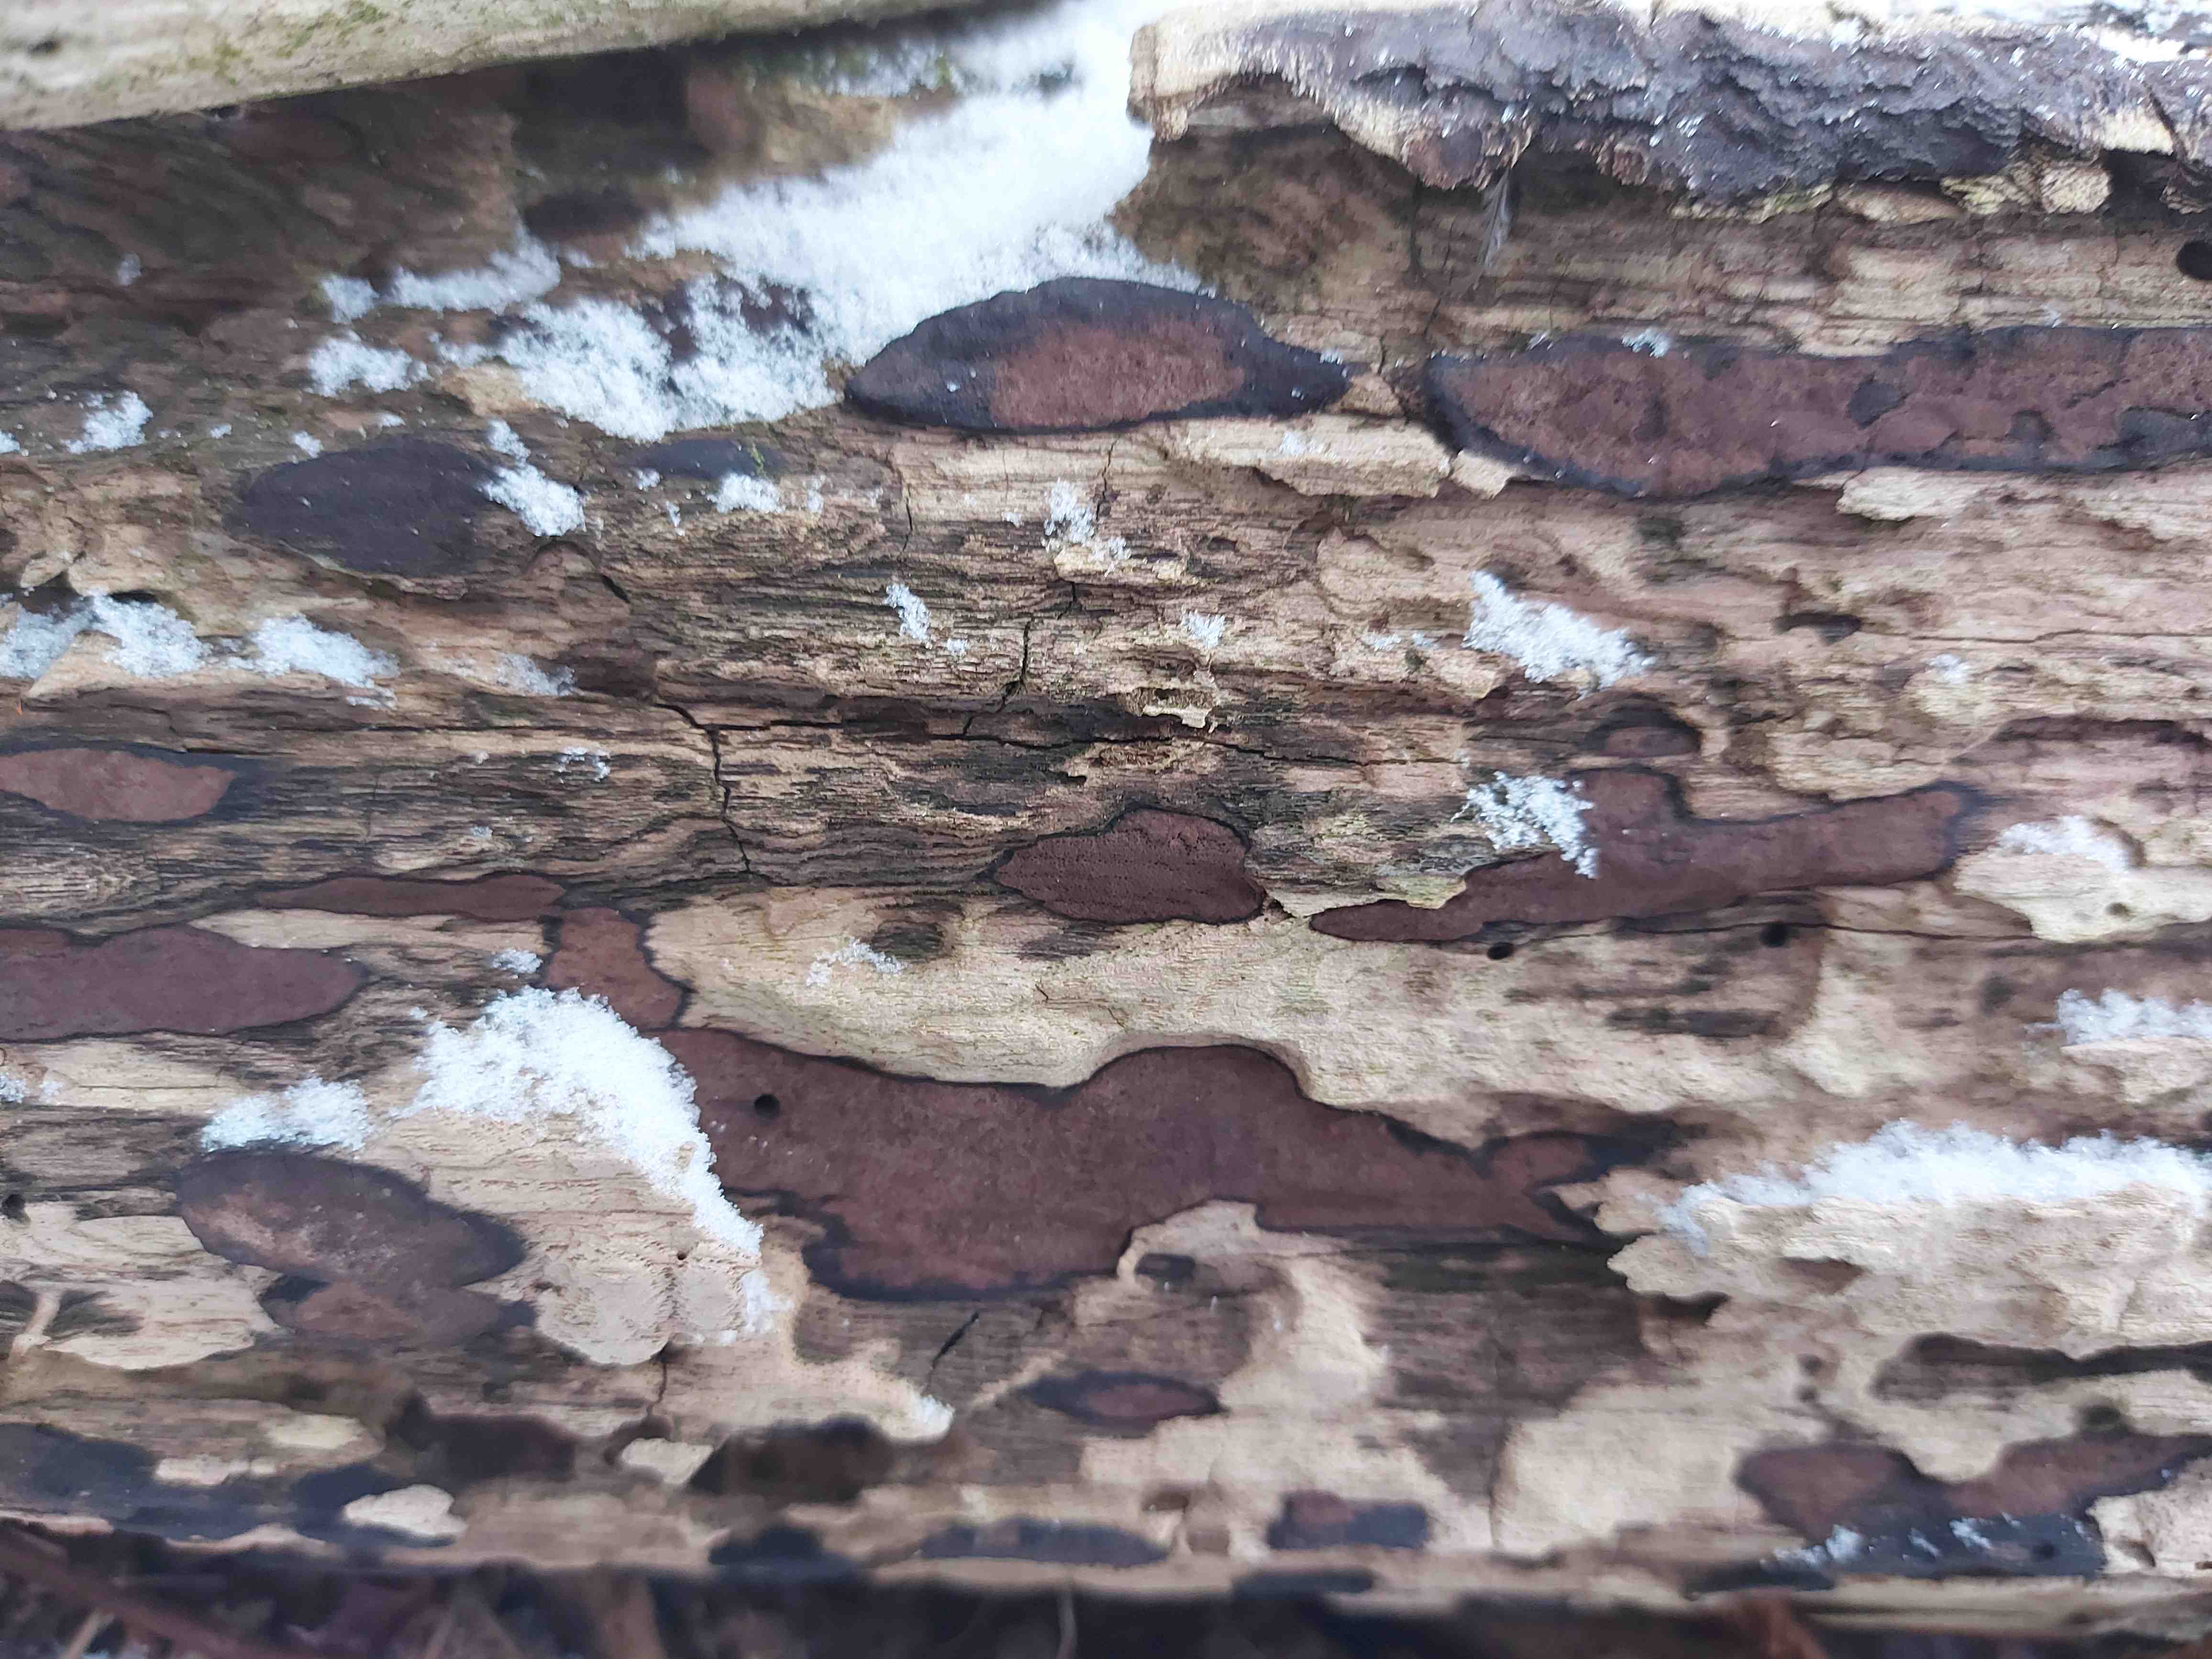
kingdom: Fungi
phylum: Ascomycota
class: Sordariomycetes
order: Xylariales
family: Hypoxylaceae
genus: Hypoxylon
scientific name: Hypoxylon petriniae
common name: nedsænket kulbær
